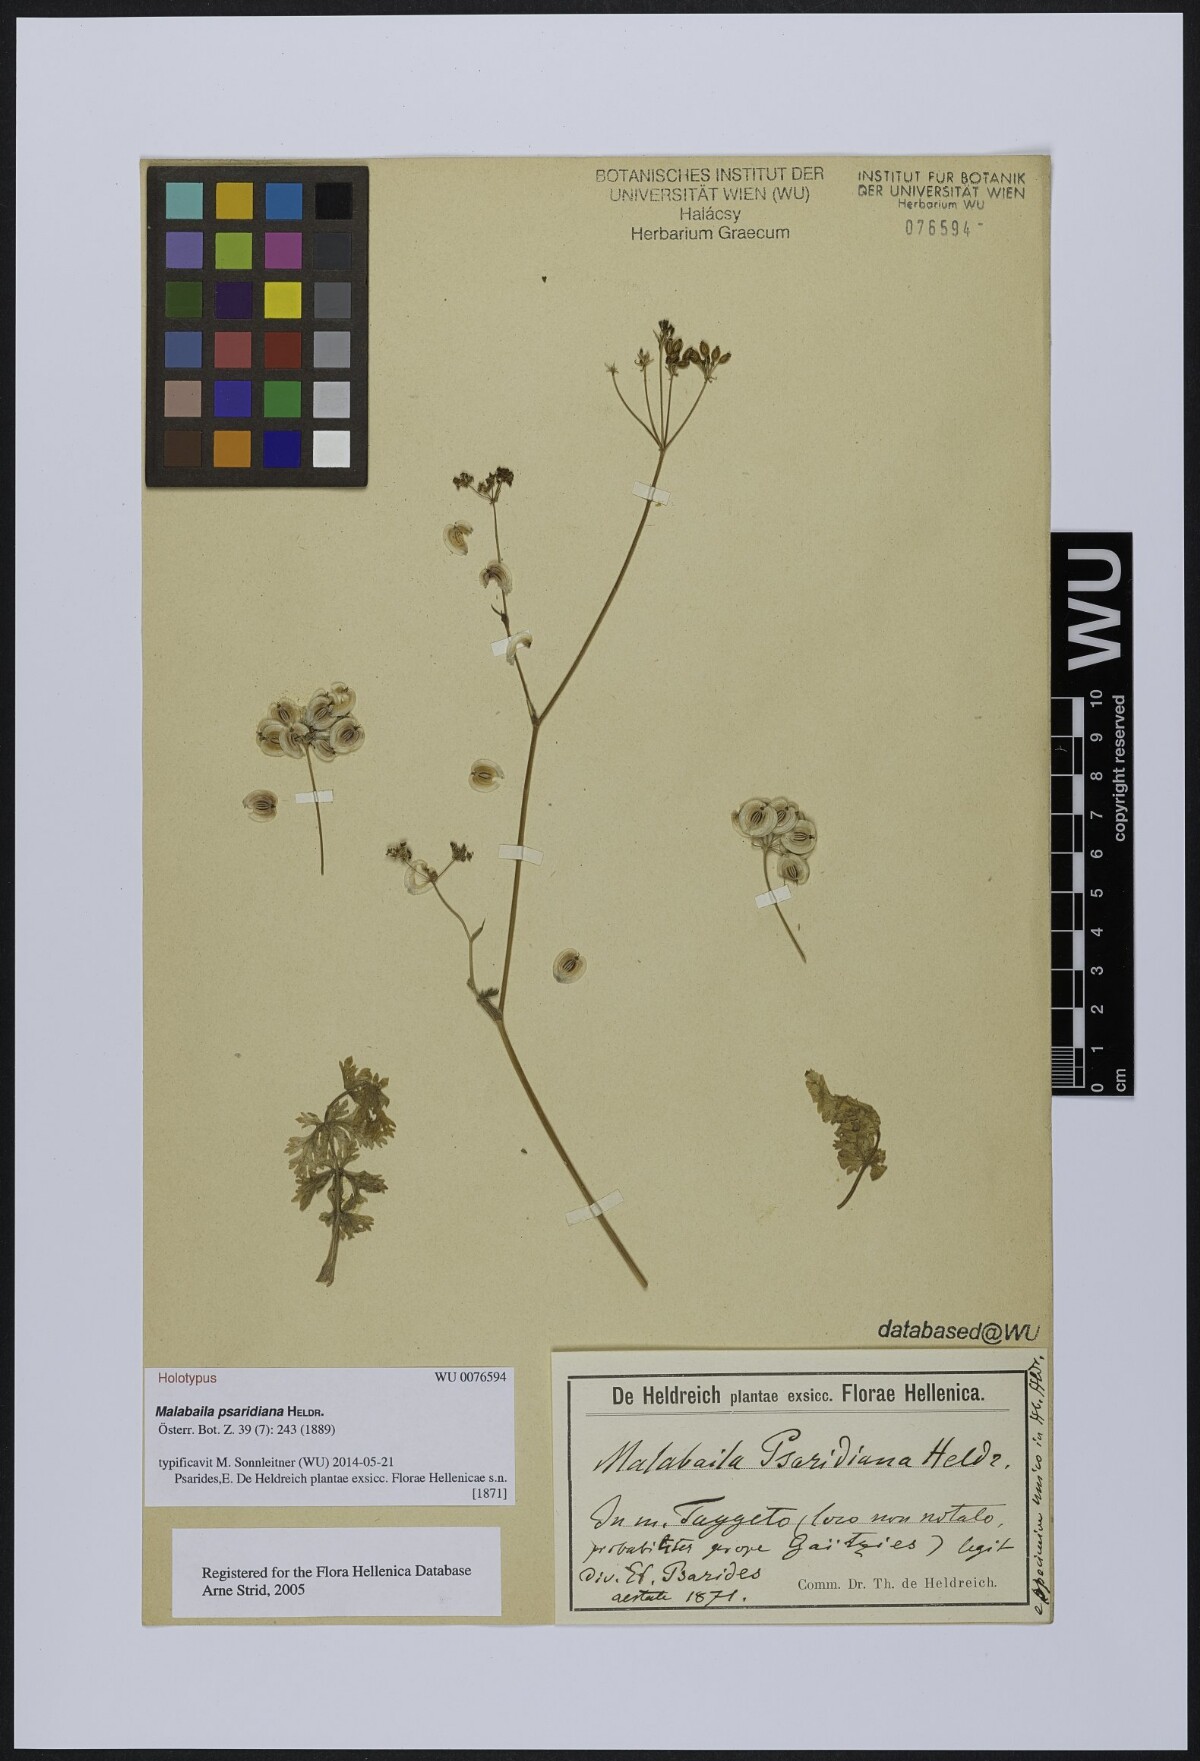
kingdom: Plantae
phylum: Tracheophyta
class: Magnoliopsida
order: Apiales
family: Apiaceae
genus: Leiotulus
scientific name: Leiotulus involucratus
